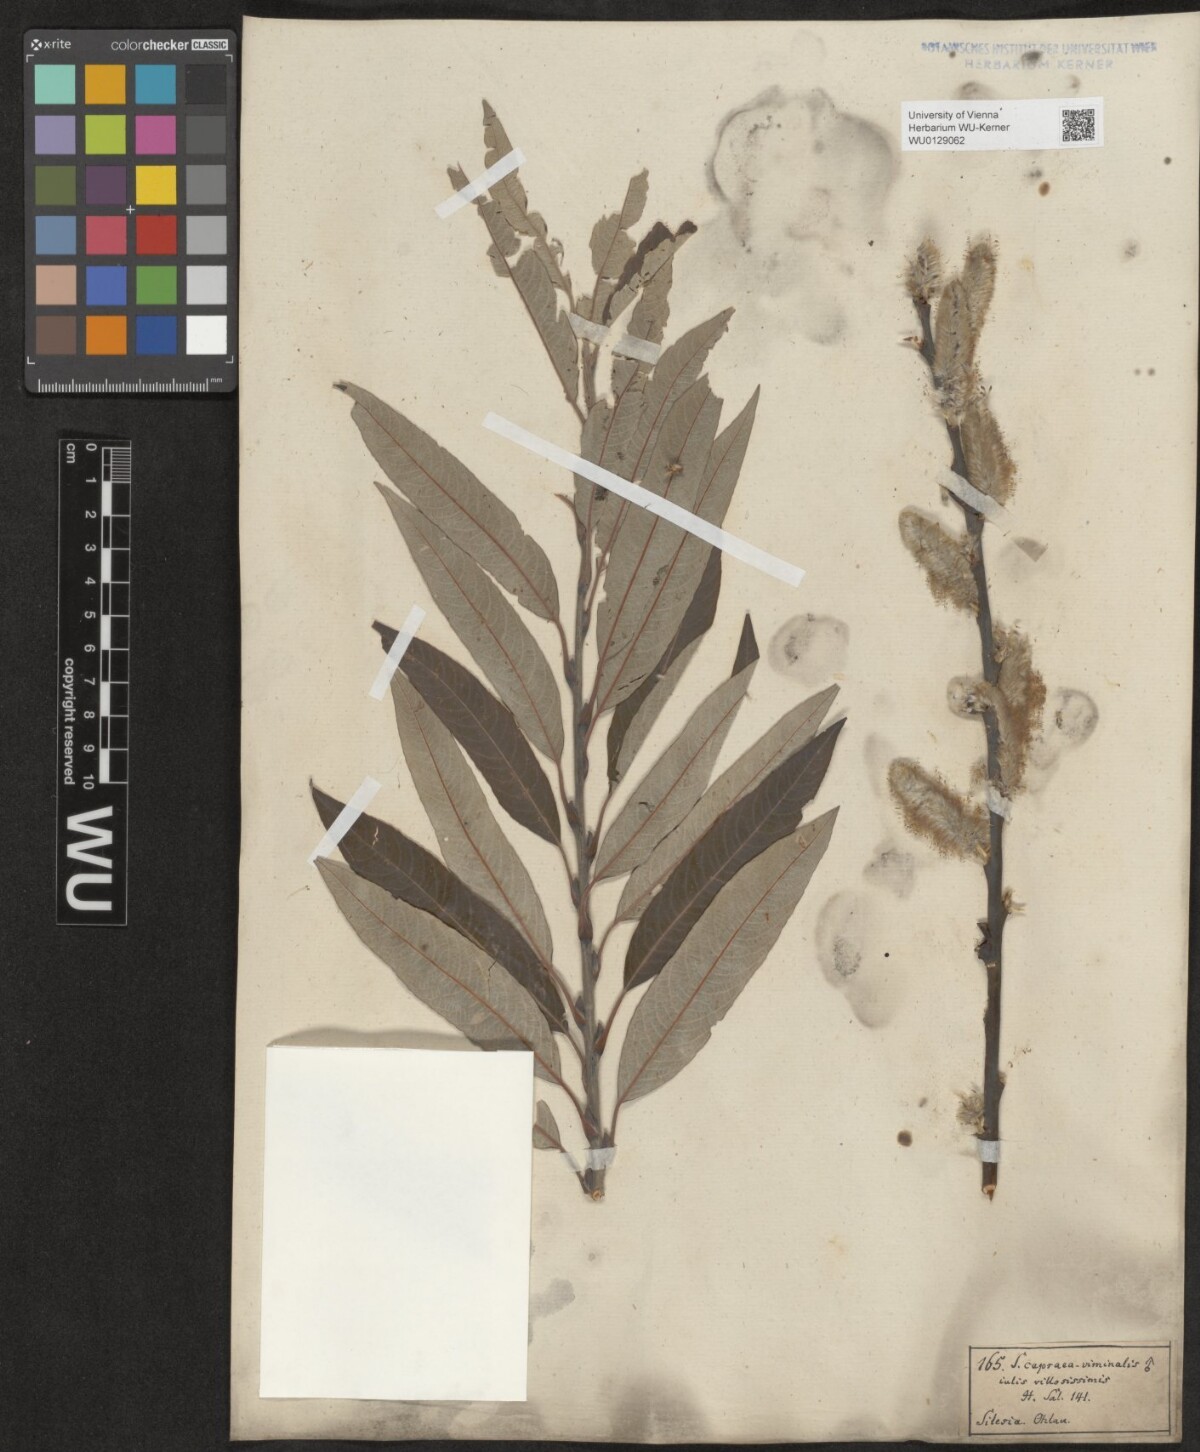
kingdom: Plantae
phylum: Tracheophyta
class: Magnoliopsida
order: Malpighiales
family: Salicaceae
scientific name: Salicaceae
